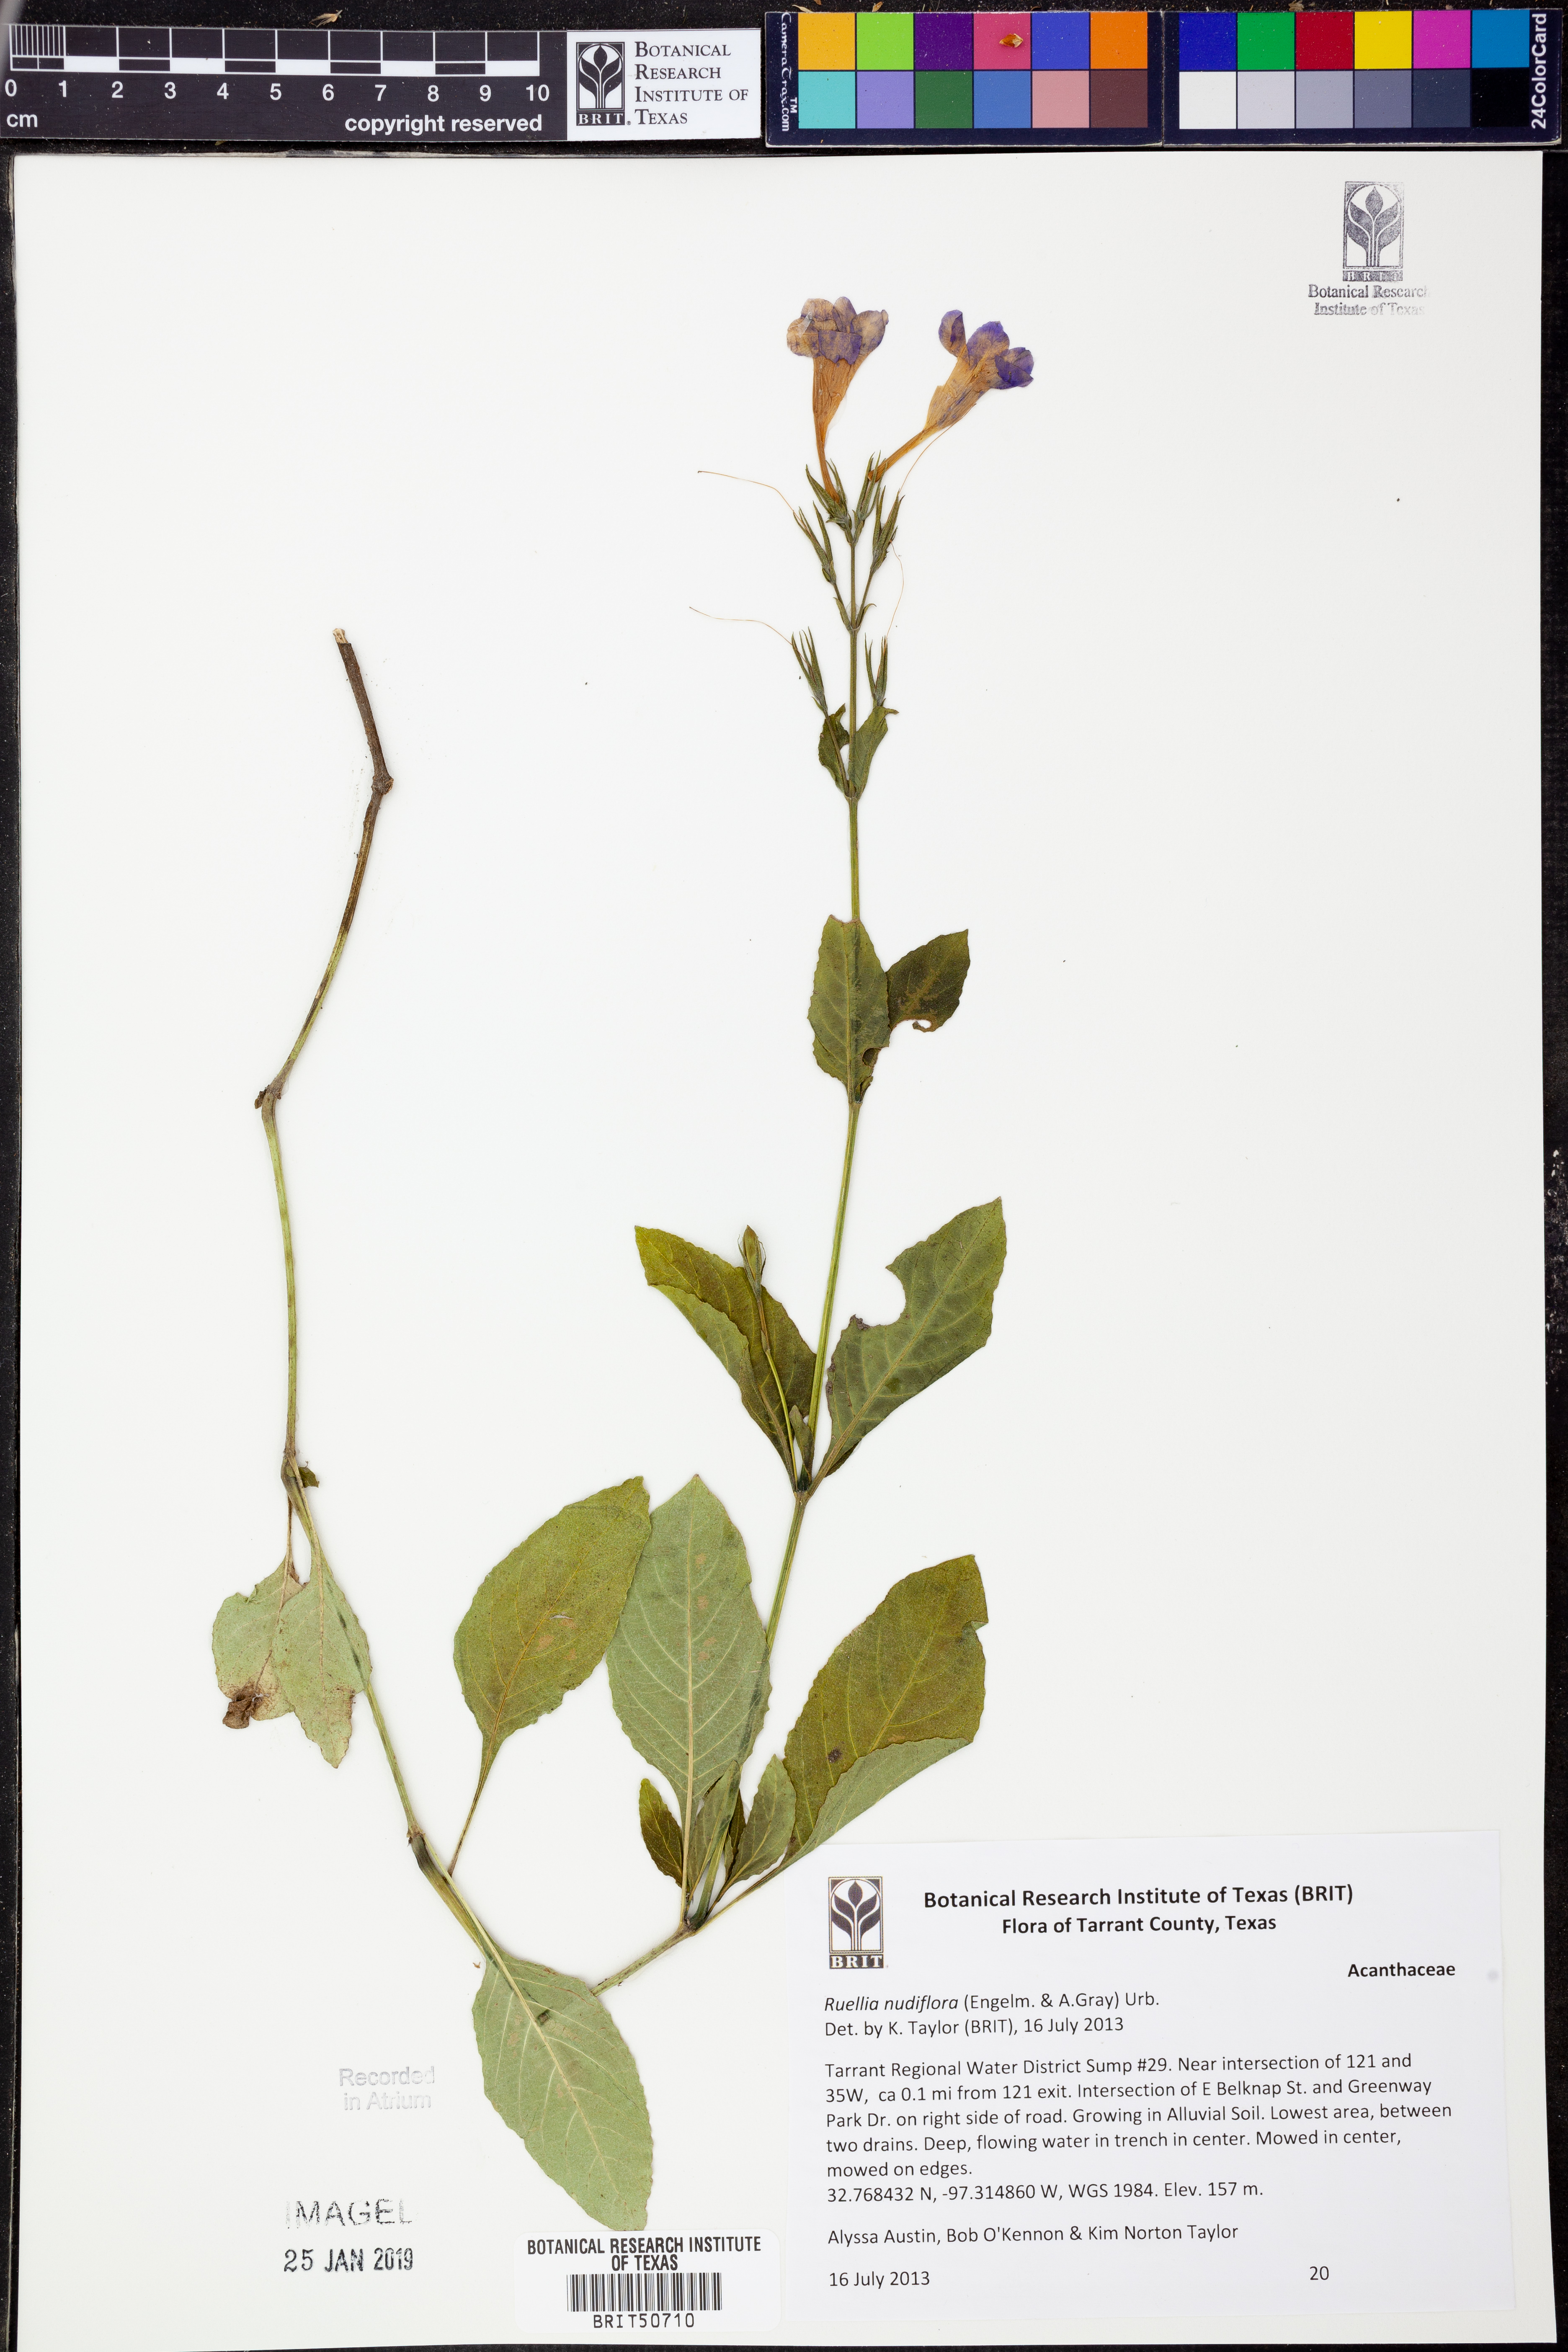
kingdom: Plantae
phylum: Tracheophyta
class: Magnoliopsida
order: Lamiales
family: Acanthaceae
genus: Ruellia
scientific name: Ruellia ciliatiflora
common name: Hairyflower wild petunia
